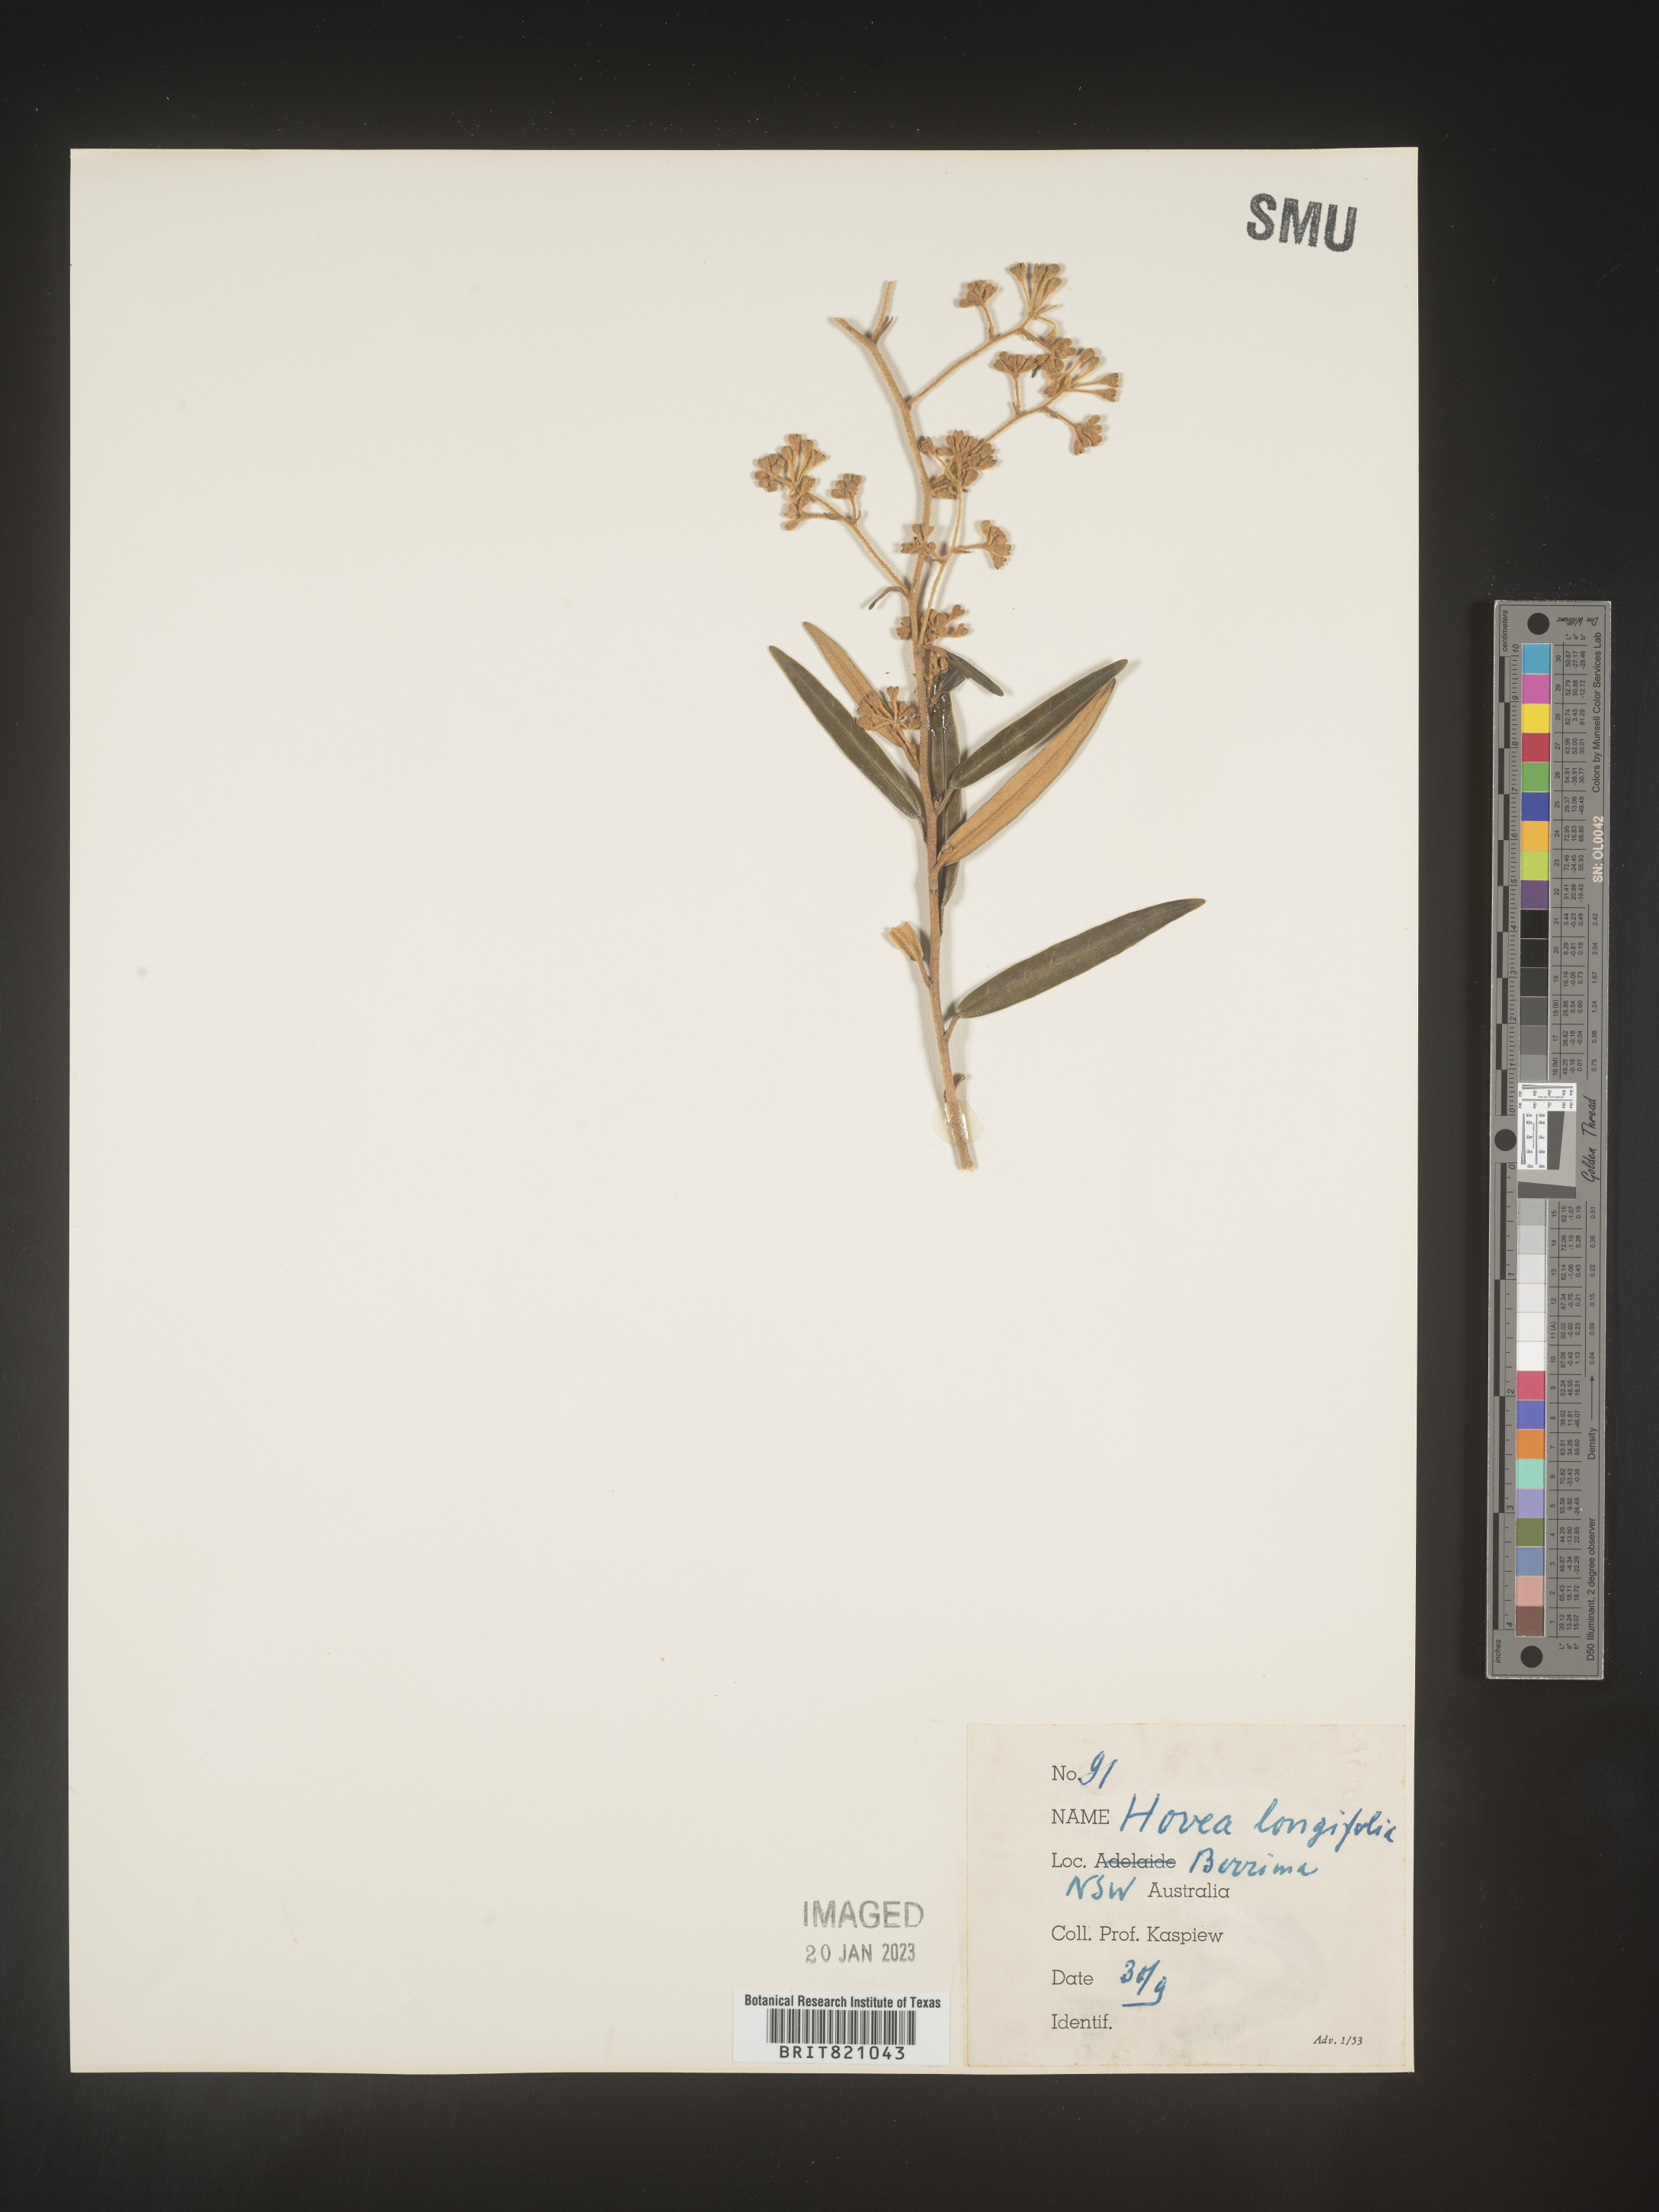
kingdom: Plantae
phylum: Tracheophyta
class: Magnoliopsida
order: Fabales
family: Fabaceae
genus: Hovea
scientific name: Hovea
